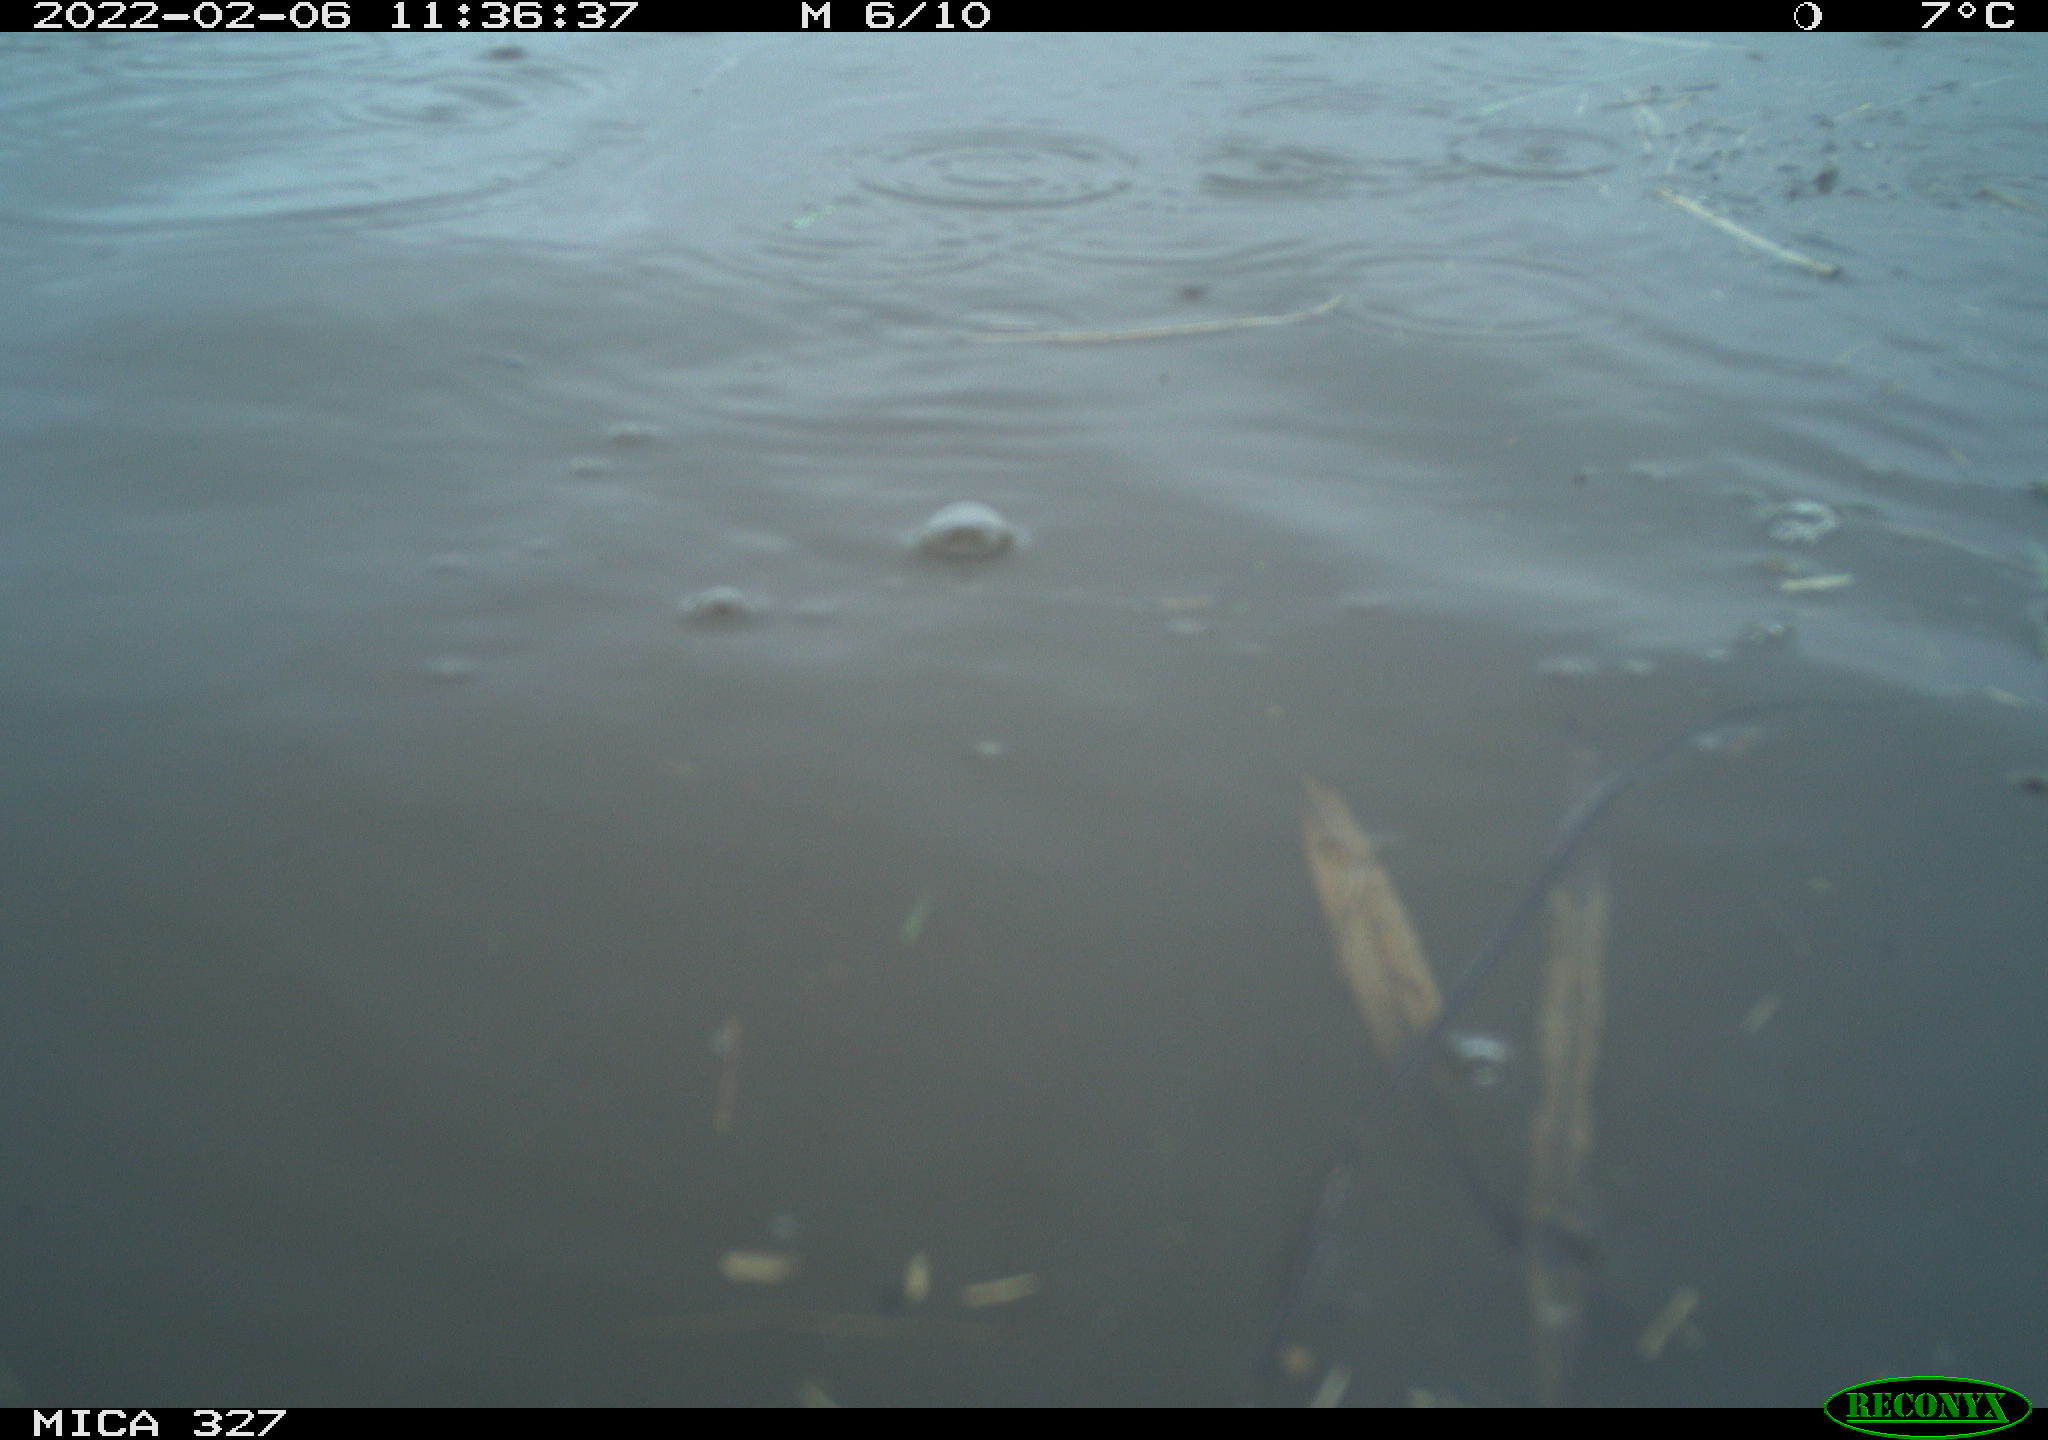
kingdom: Animalia
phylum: Chordata
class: Aves
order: Podicipediformes
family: Podicipedidae
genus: Tachybaptus
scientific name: Tachybaptus ruficollis
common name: Little grebe
